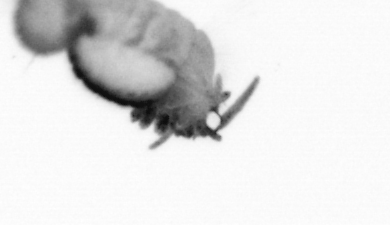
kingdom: Animalia
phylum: Annelida
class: Polychaeta
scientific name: Polychaeta
